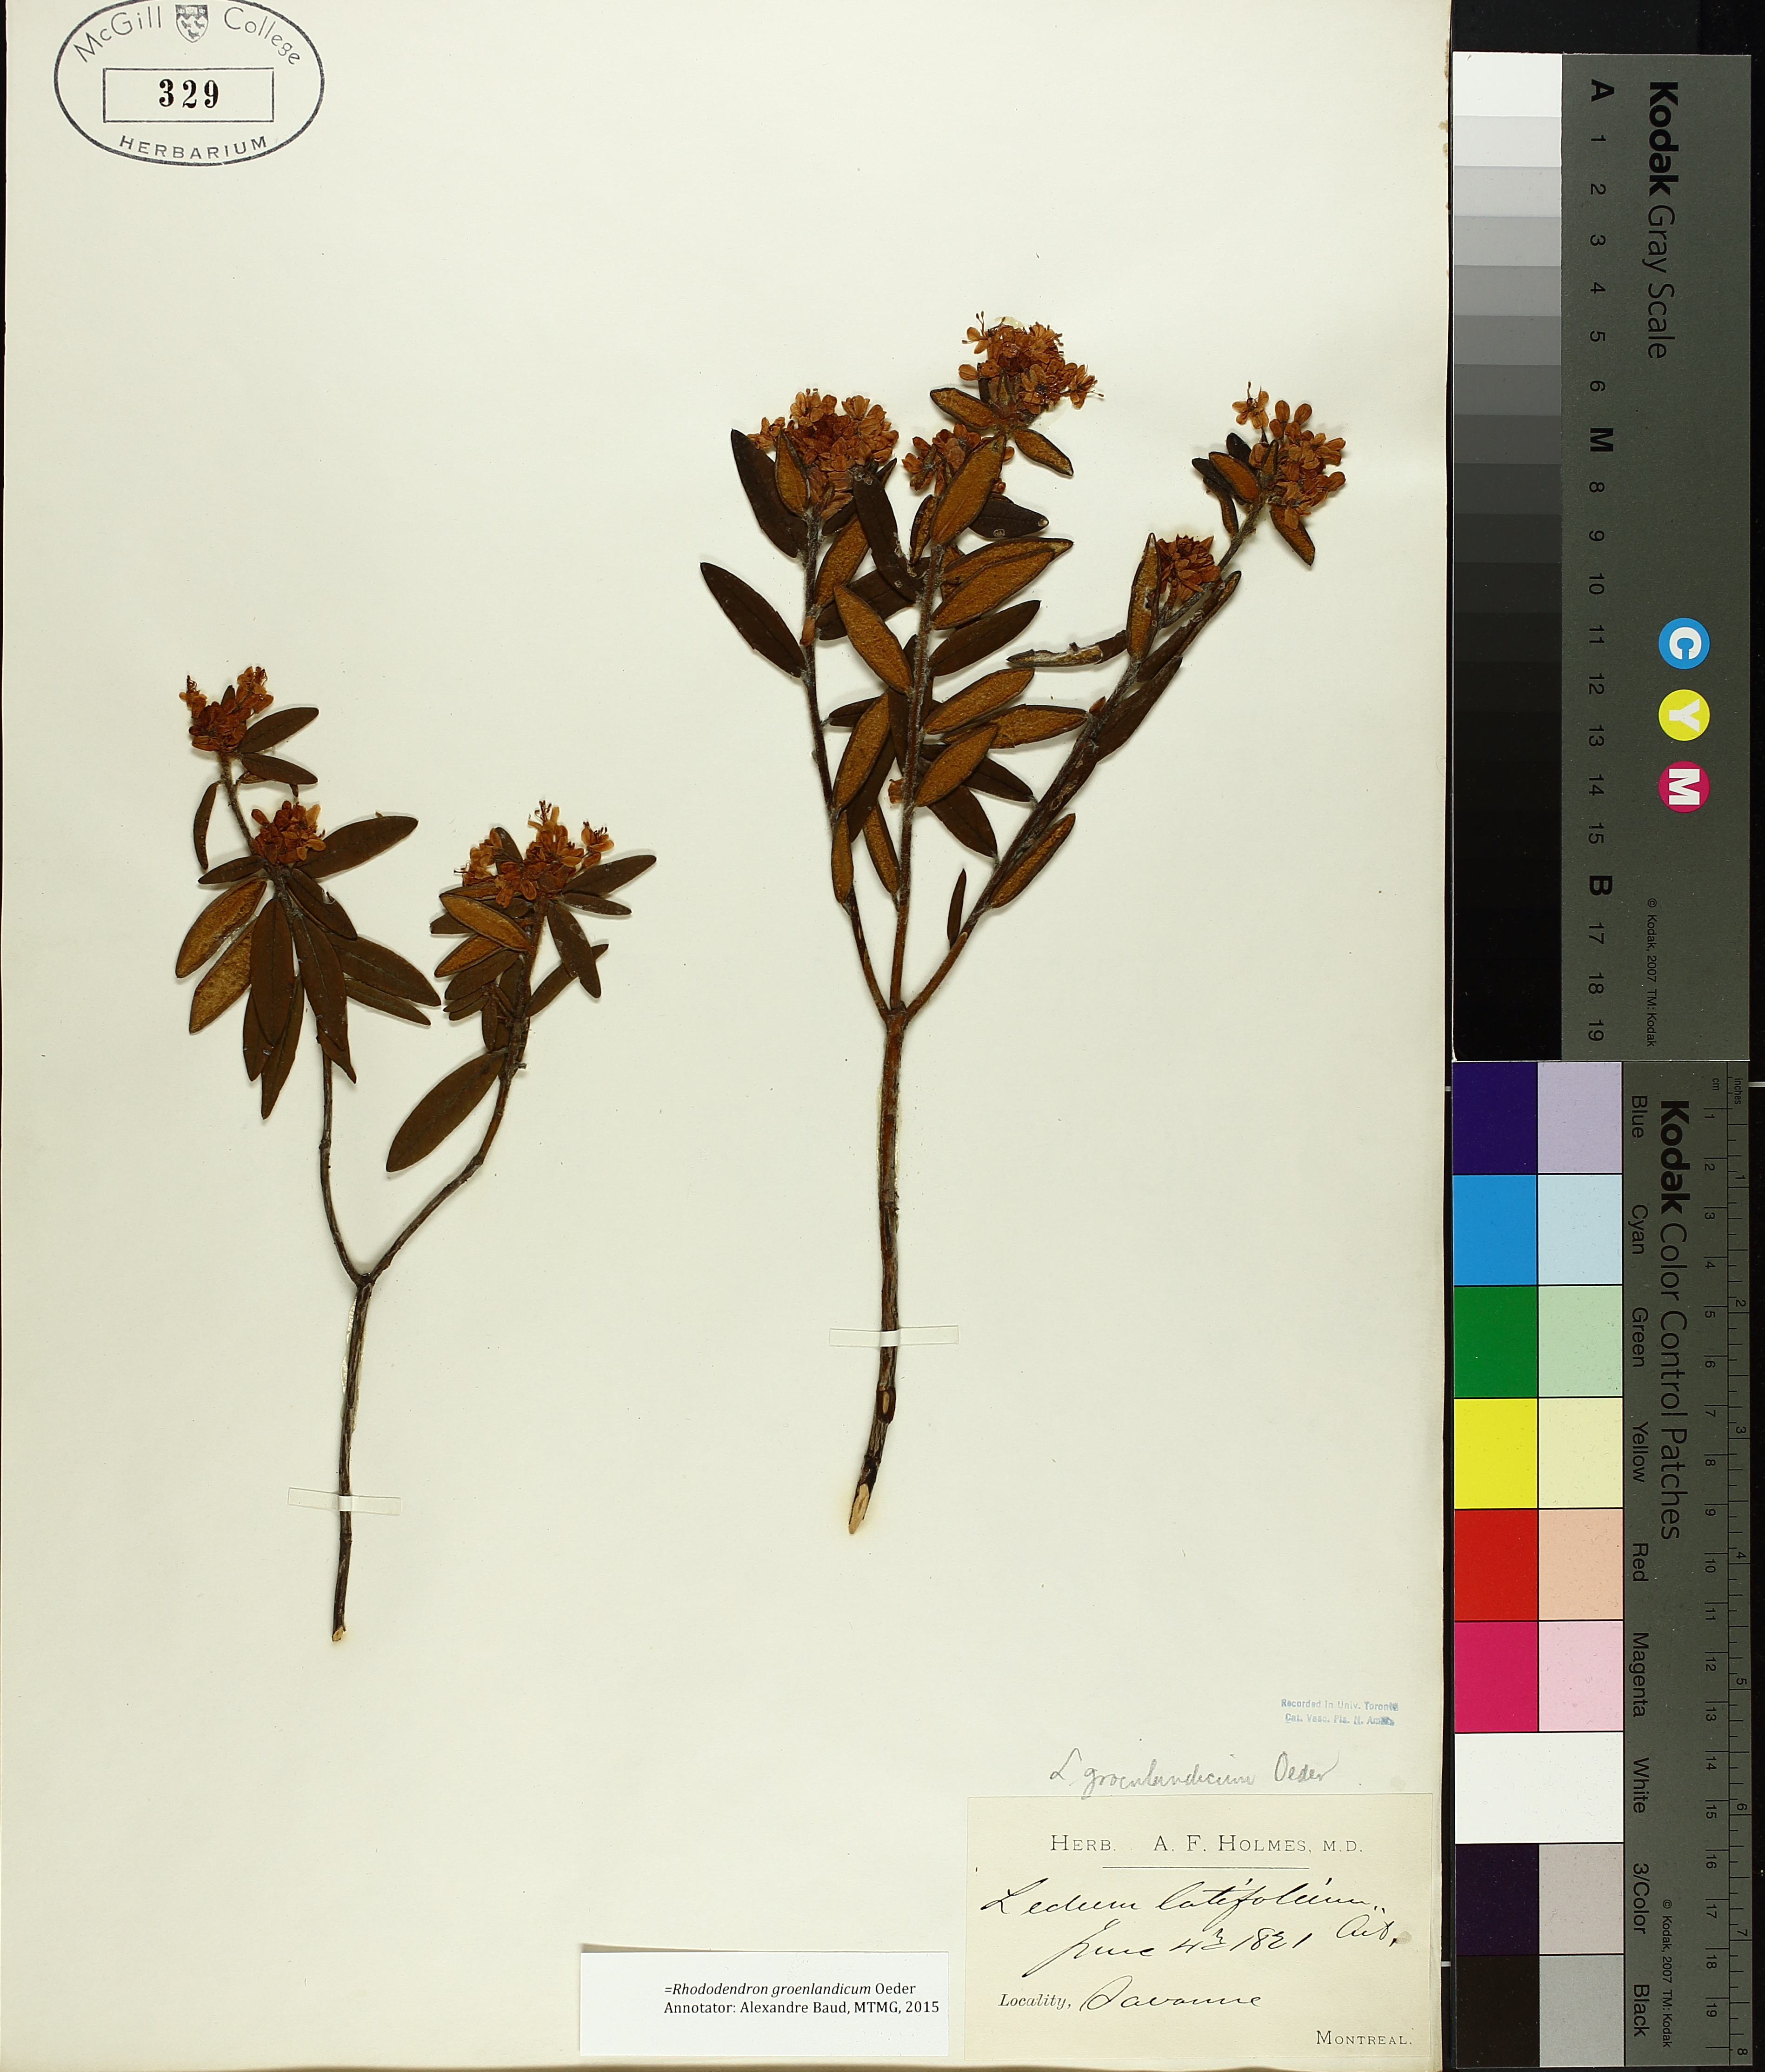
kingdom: Plantae
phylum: Tracheophyta
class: Magnoliopsida
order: Ericales
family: Ericaceae
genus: Rhododendron
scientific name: Rhododendron groenlandicum
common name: Bog labrador tea
